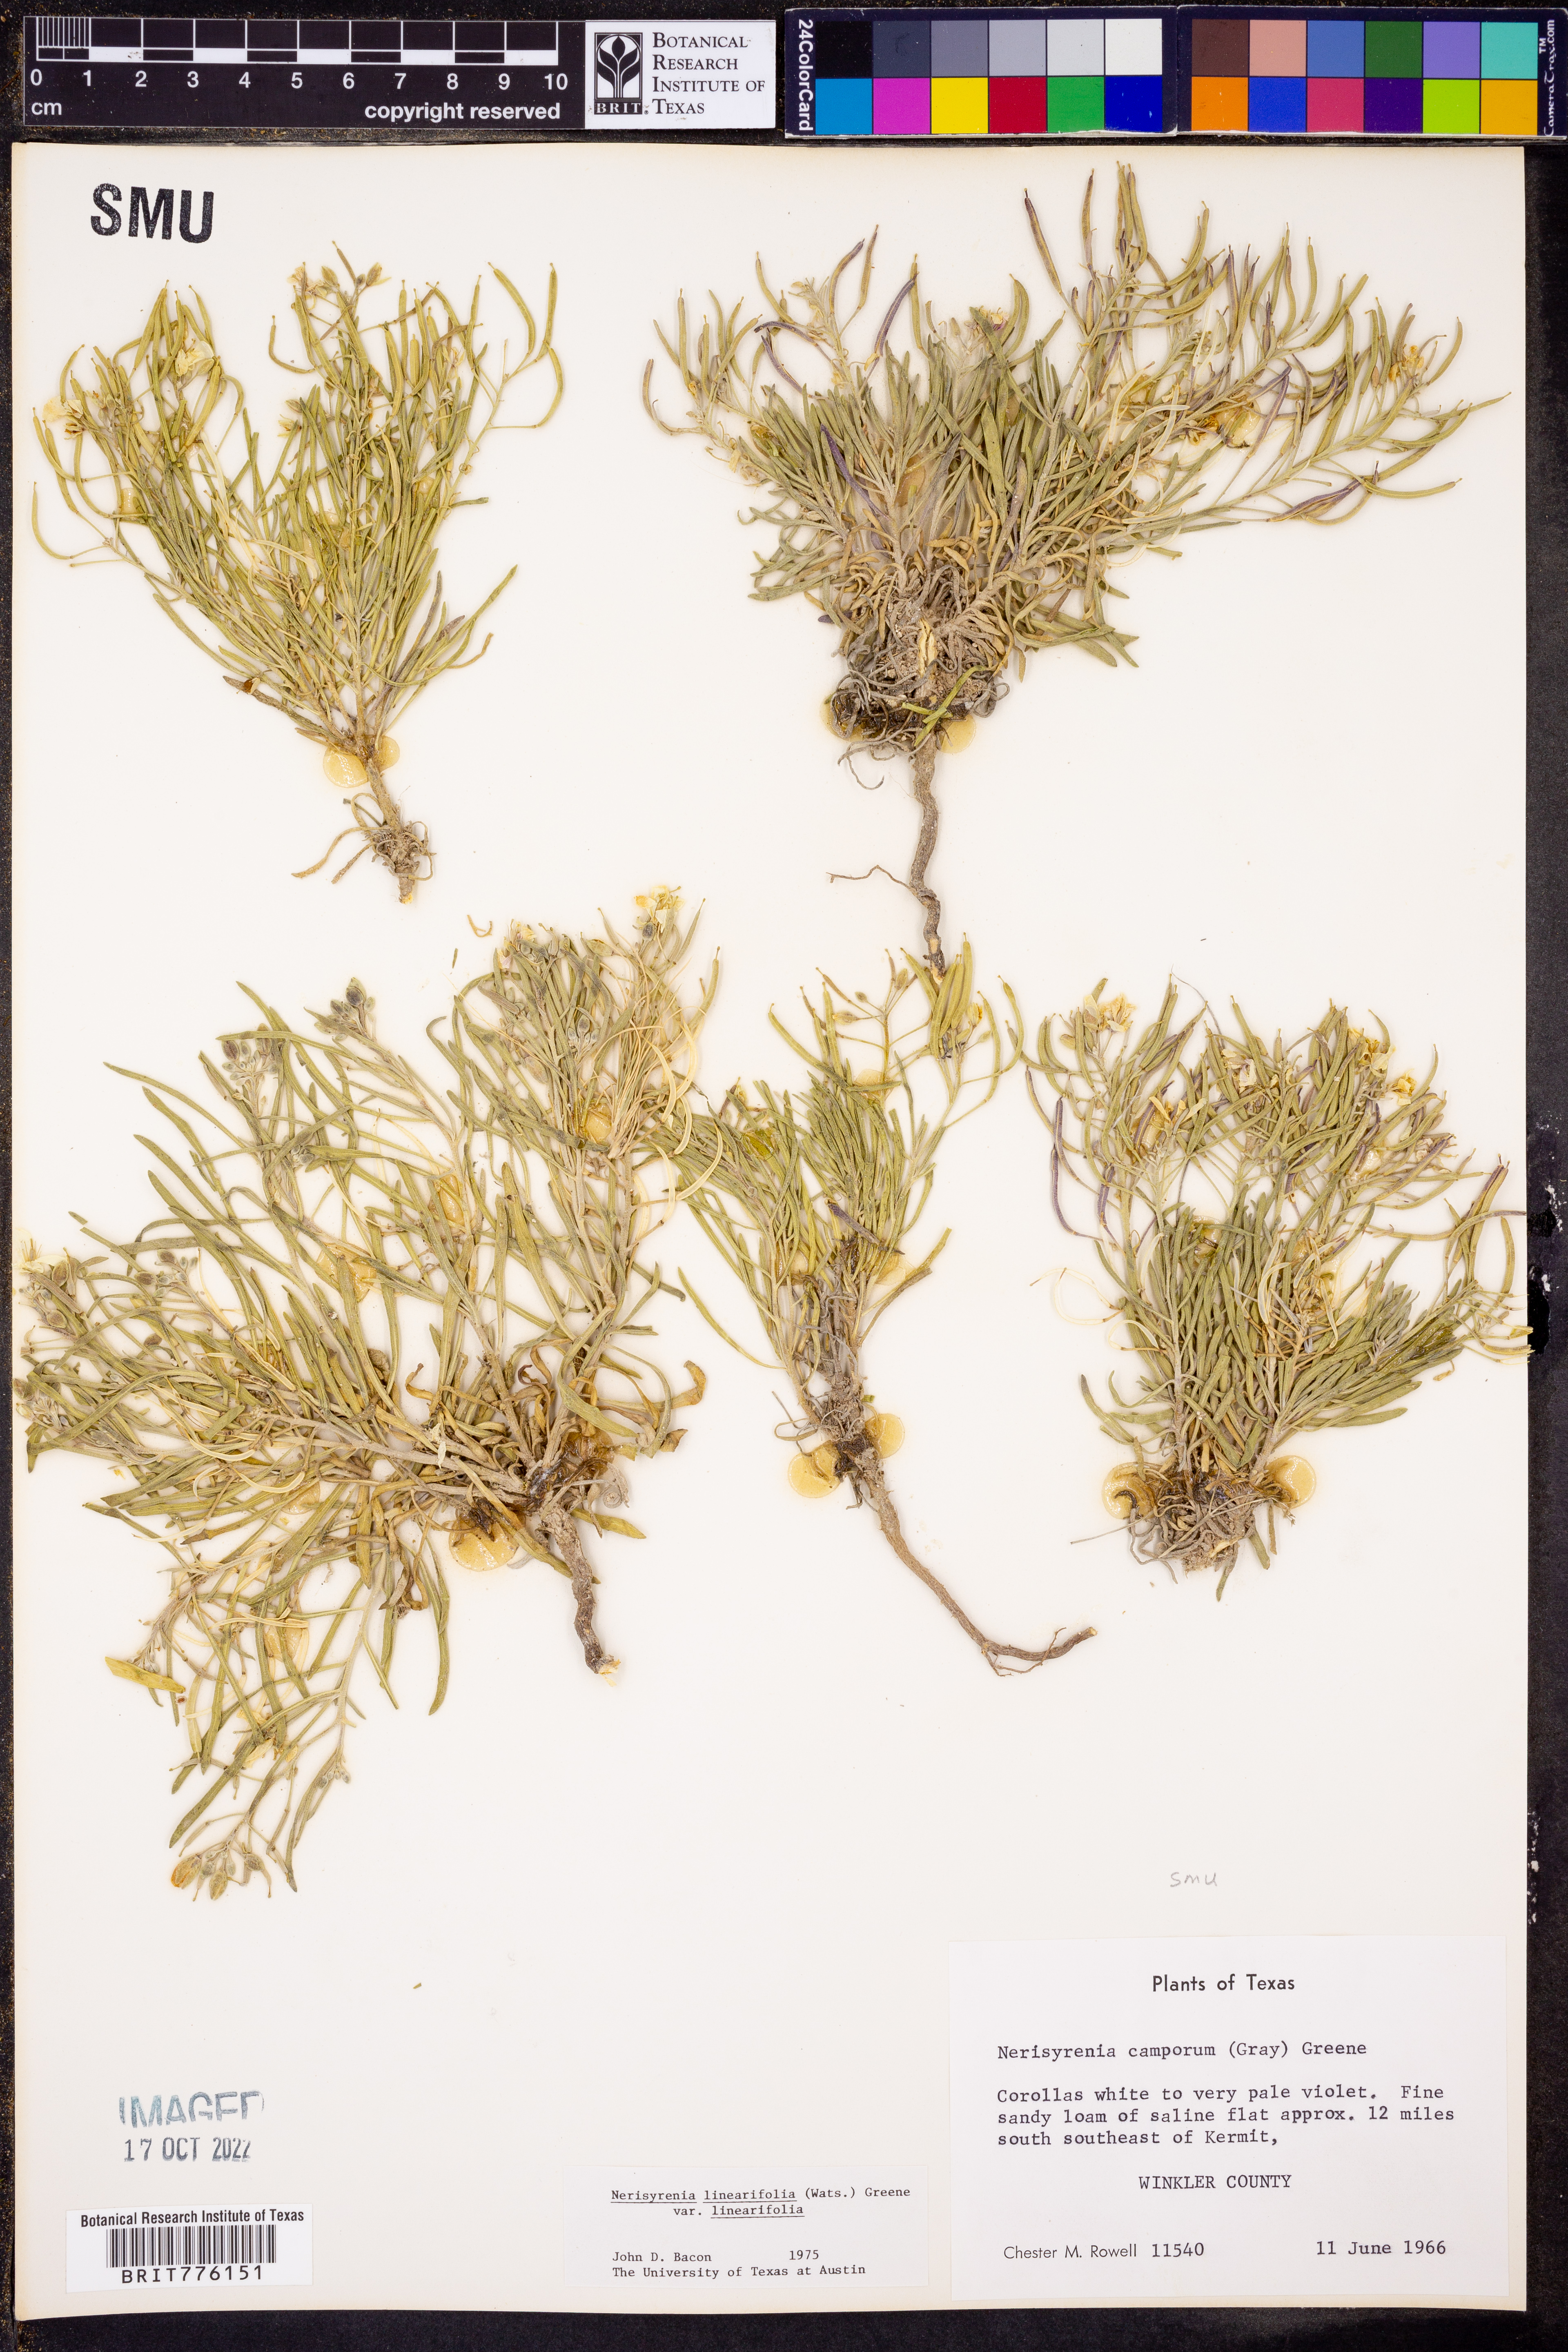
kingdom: Plantae
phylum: Tracheophyta
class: Magnoliopsida
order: Brassicales
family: Brassicaceae
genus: Nerisyrenia
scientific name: Nerisyrenia linearifolia
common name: White sands fan mustard
